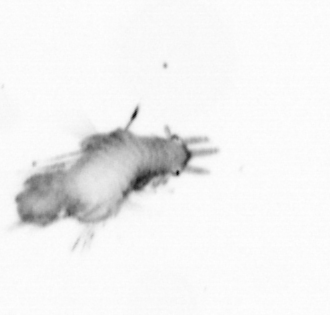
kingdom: Animalia
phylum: Annelida
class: Polychaeta
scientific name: Polychaeta
